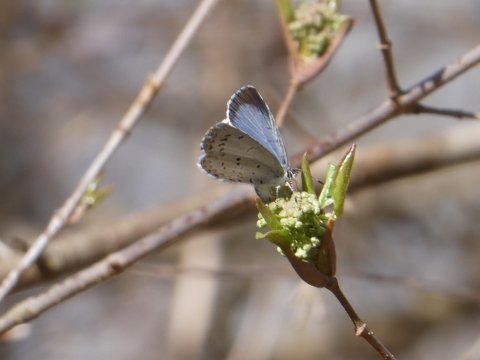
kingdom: Animalia
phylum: Arthropoda
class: Insecta
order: Lepidoptera
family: Lycaenidae
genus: Cyaniris
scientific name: Cyaniris neglecta
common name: Summer Azure
